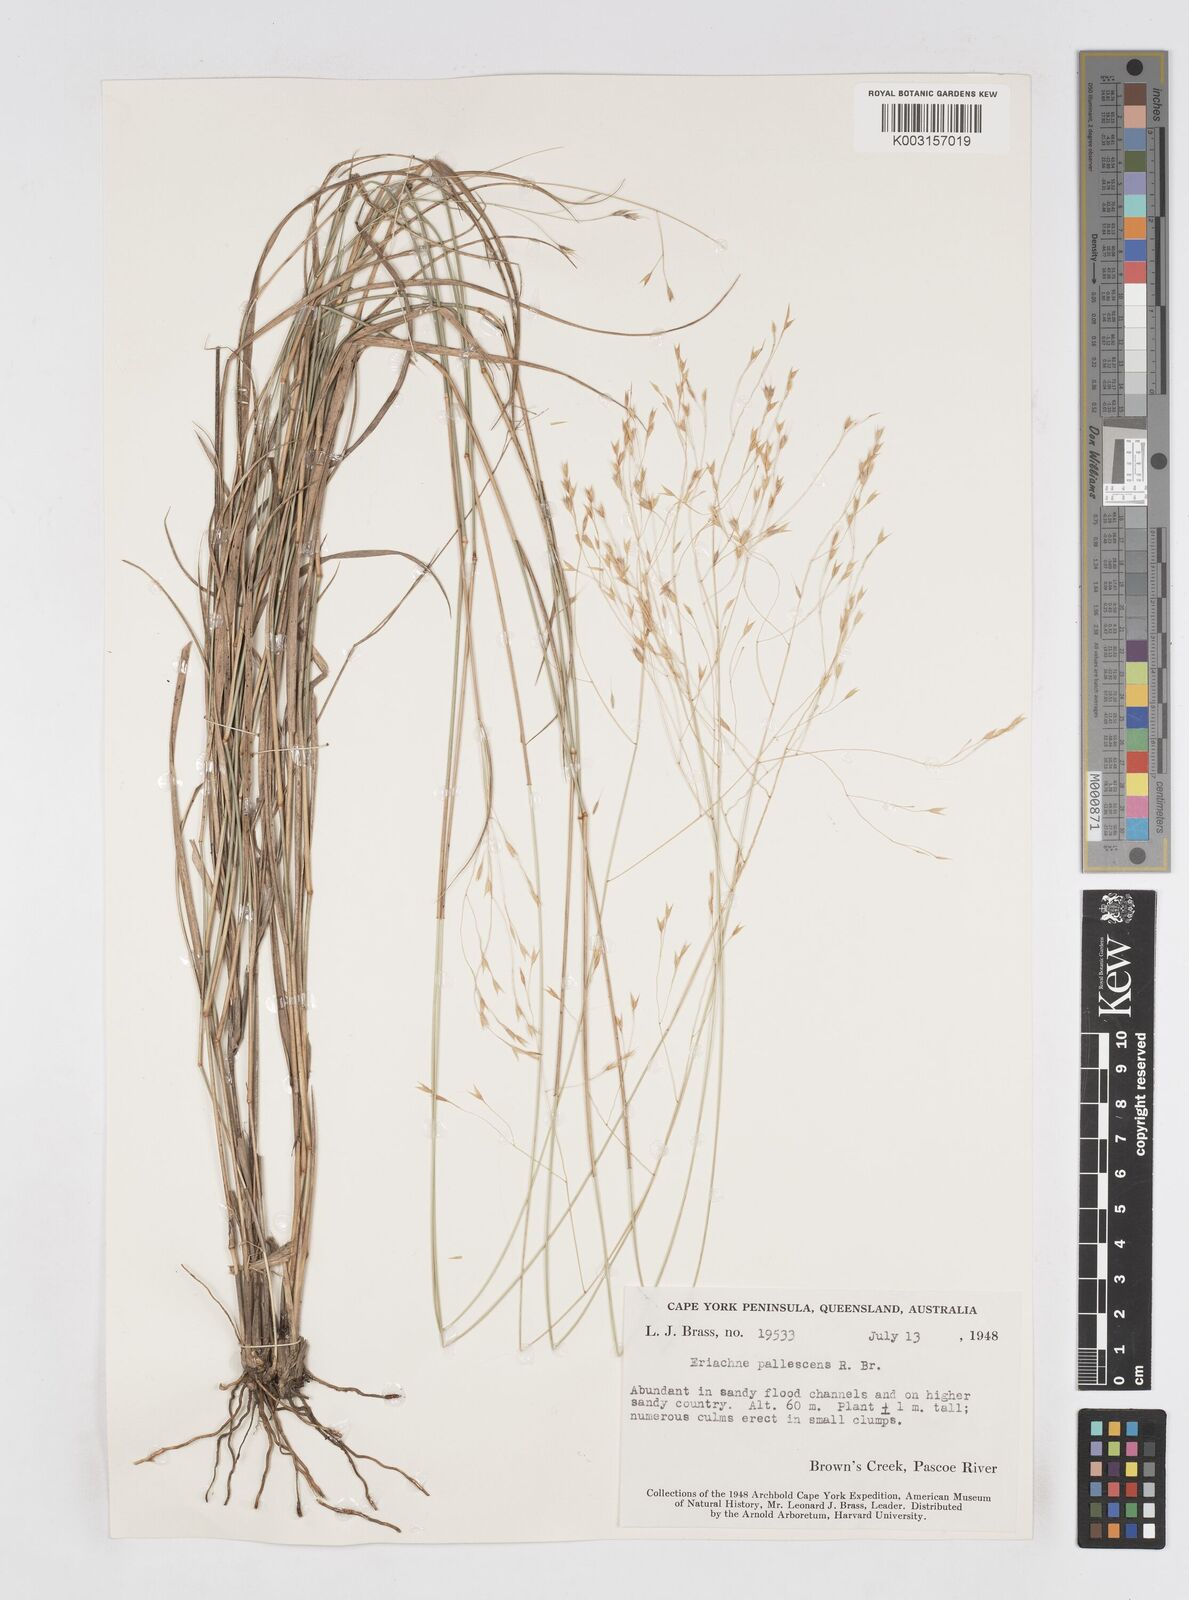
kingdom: Plantae
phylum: Tracheophyta
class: Liliopsida
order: Poales
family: Poaceae
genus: Eriachne
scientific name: Eriachne pallescens
